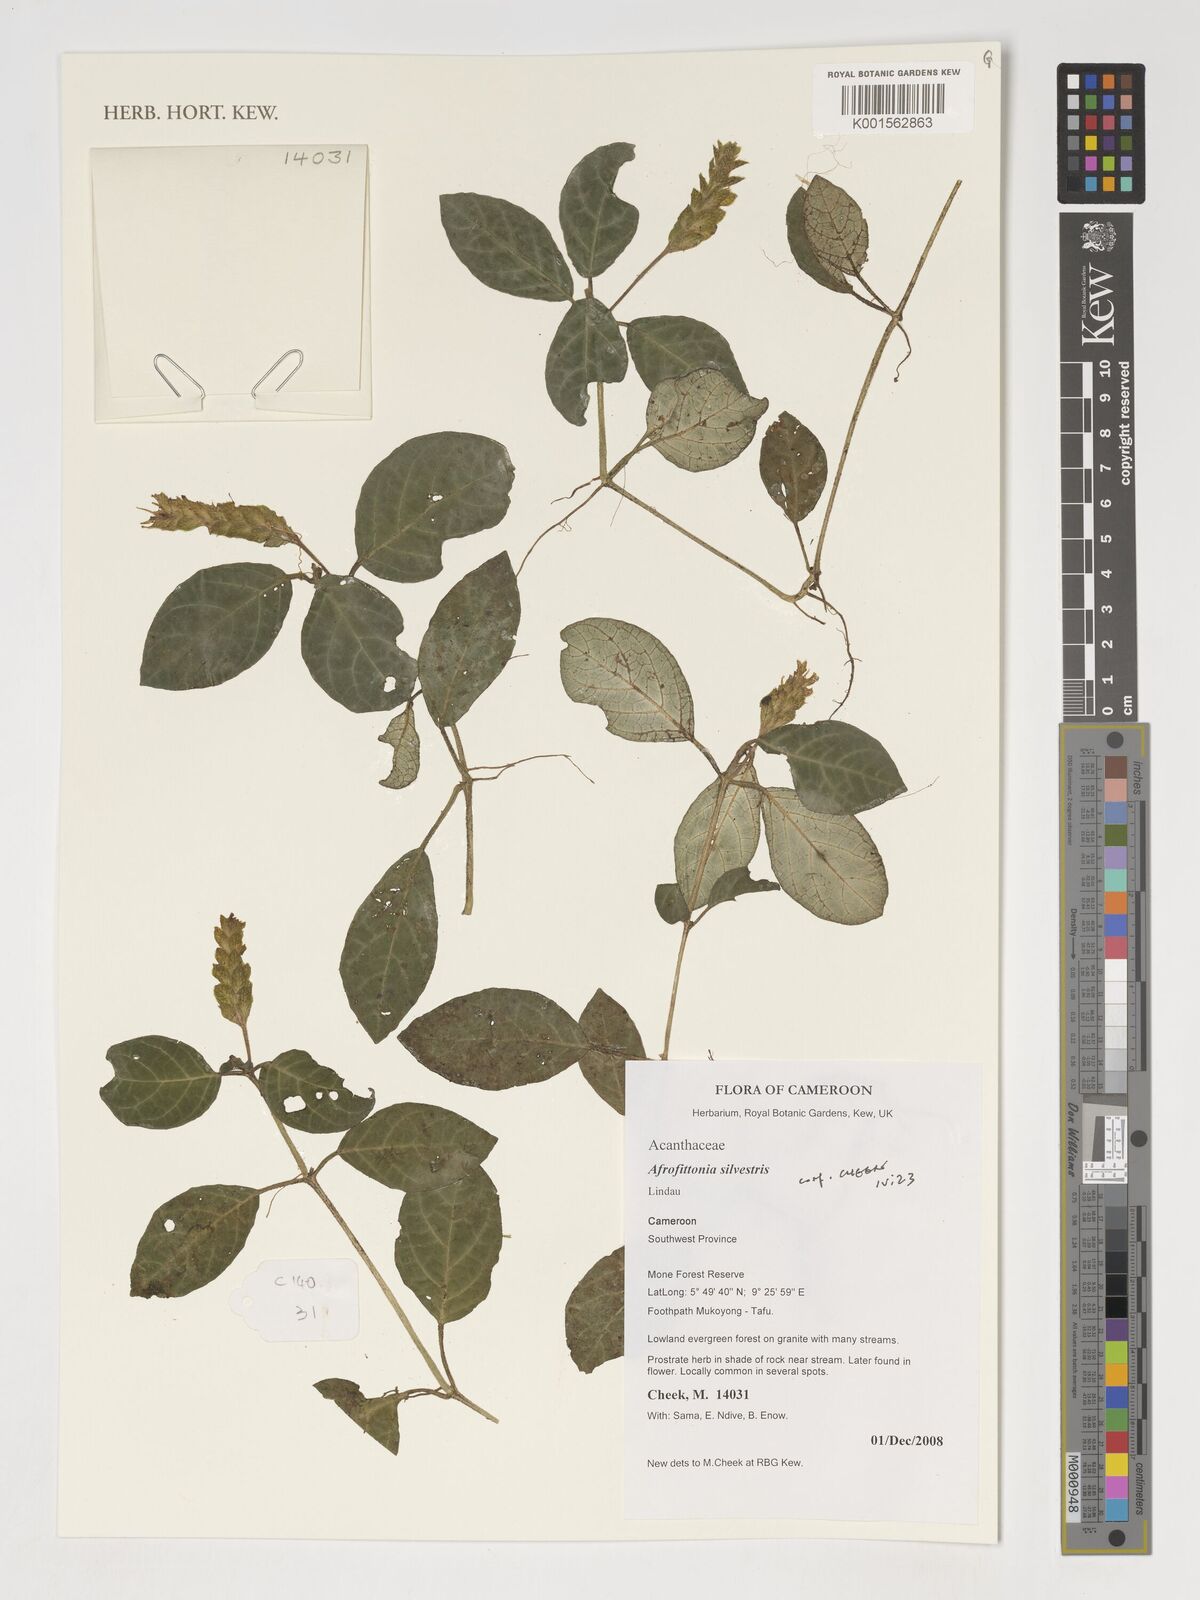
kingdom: Plantae
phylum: Tracheophyta
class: Magnoliopsida
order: Lamiales
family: Acanthaceae
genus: Afrofittonia
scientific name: Afrofittonia silvestris
